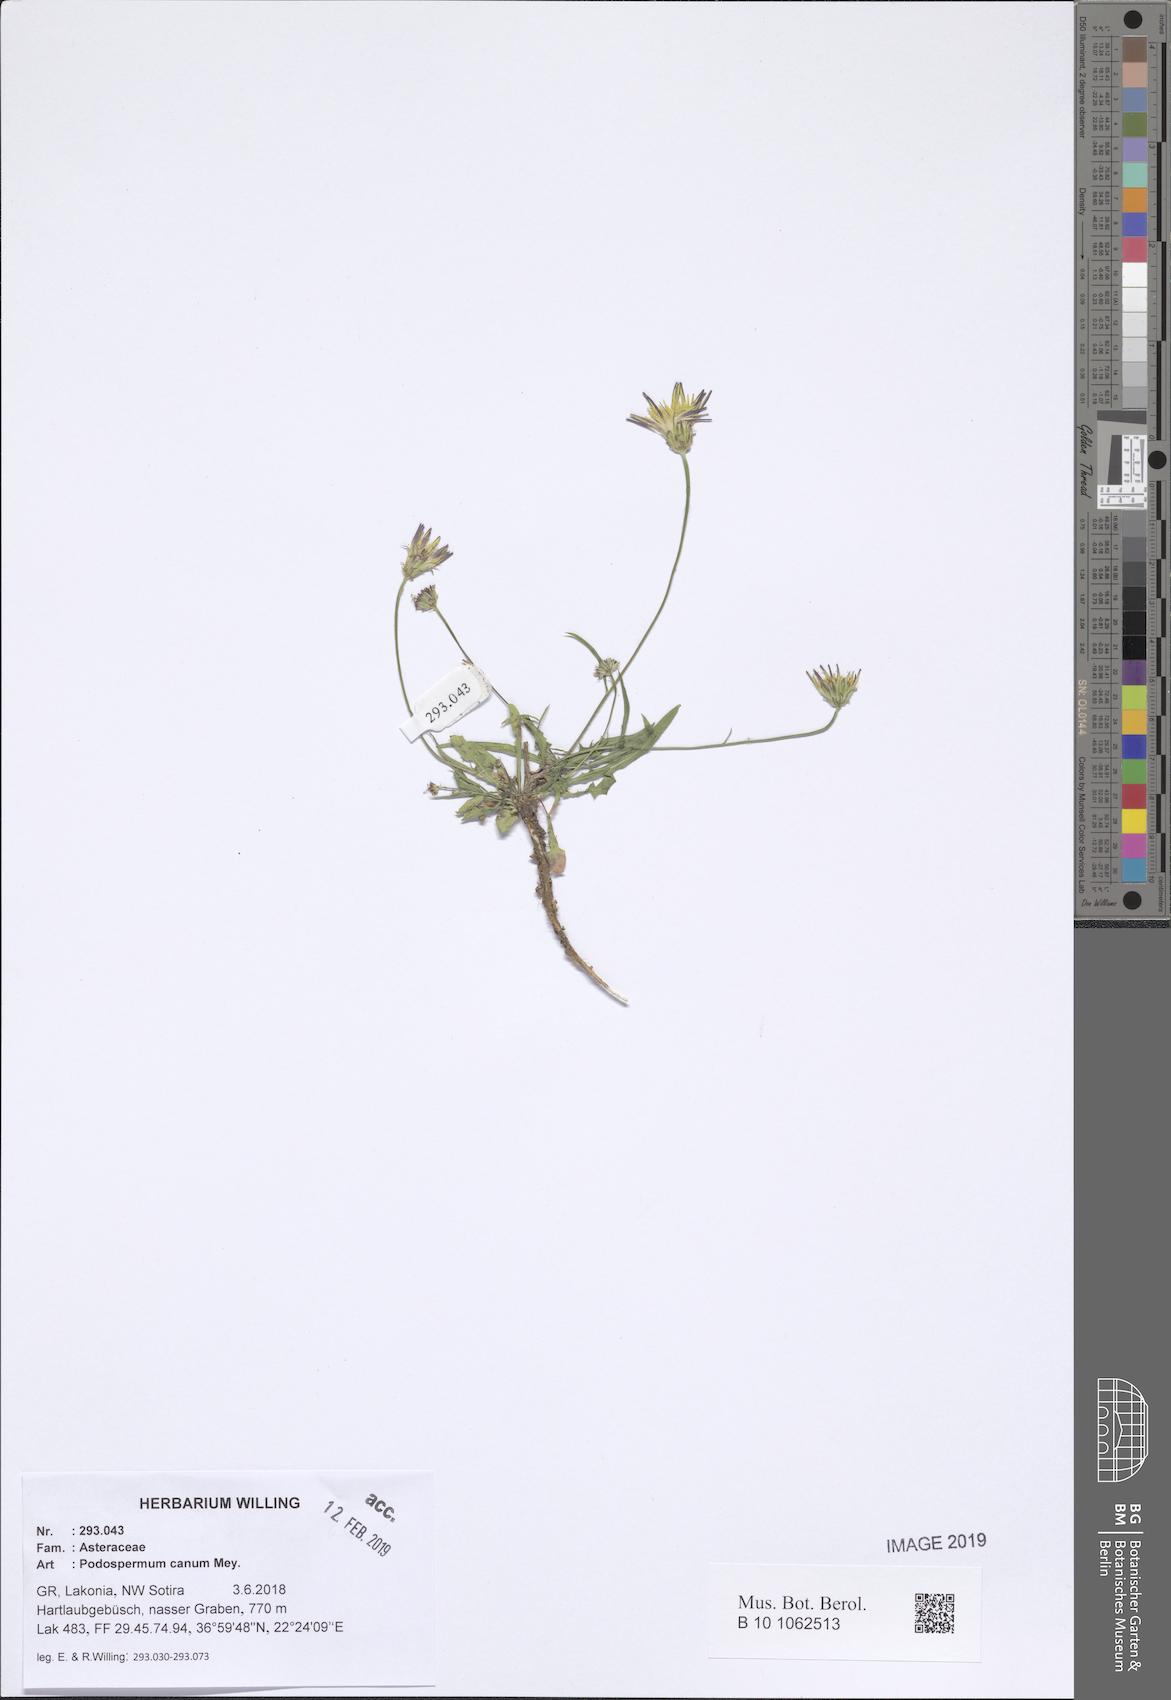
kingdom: Plantae
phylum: Tracheophyta
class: Magnoliopsida
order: Asterales
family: Asteraceae
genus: Scorzonera
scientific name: Scorzonera cana
